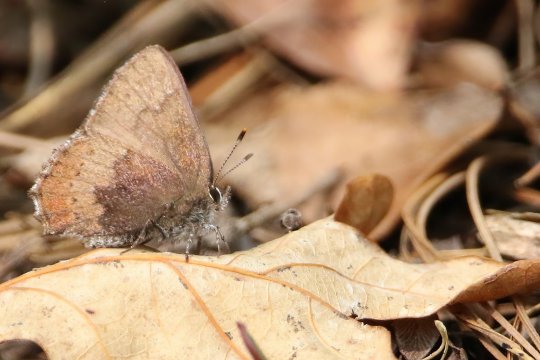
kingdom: Animalia
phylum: Arthropoda
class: Insecta
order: Lepidoptera
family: Lycaenidae
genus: Incisalia
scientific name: Incisalia irioides
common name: Brown Elfin
